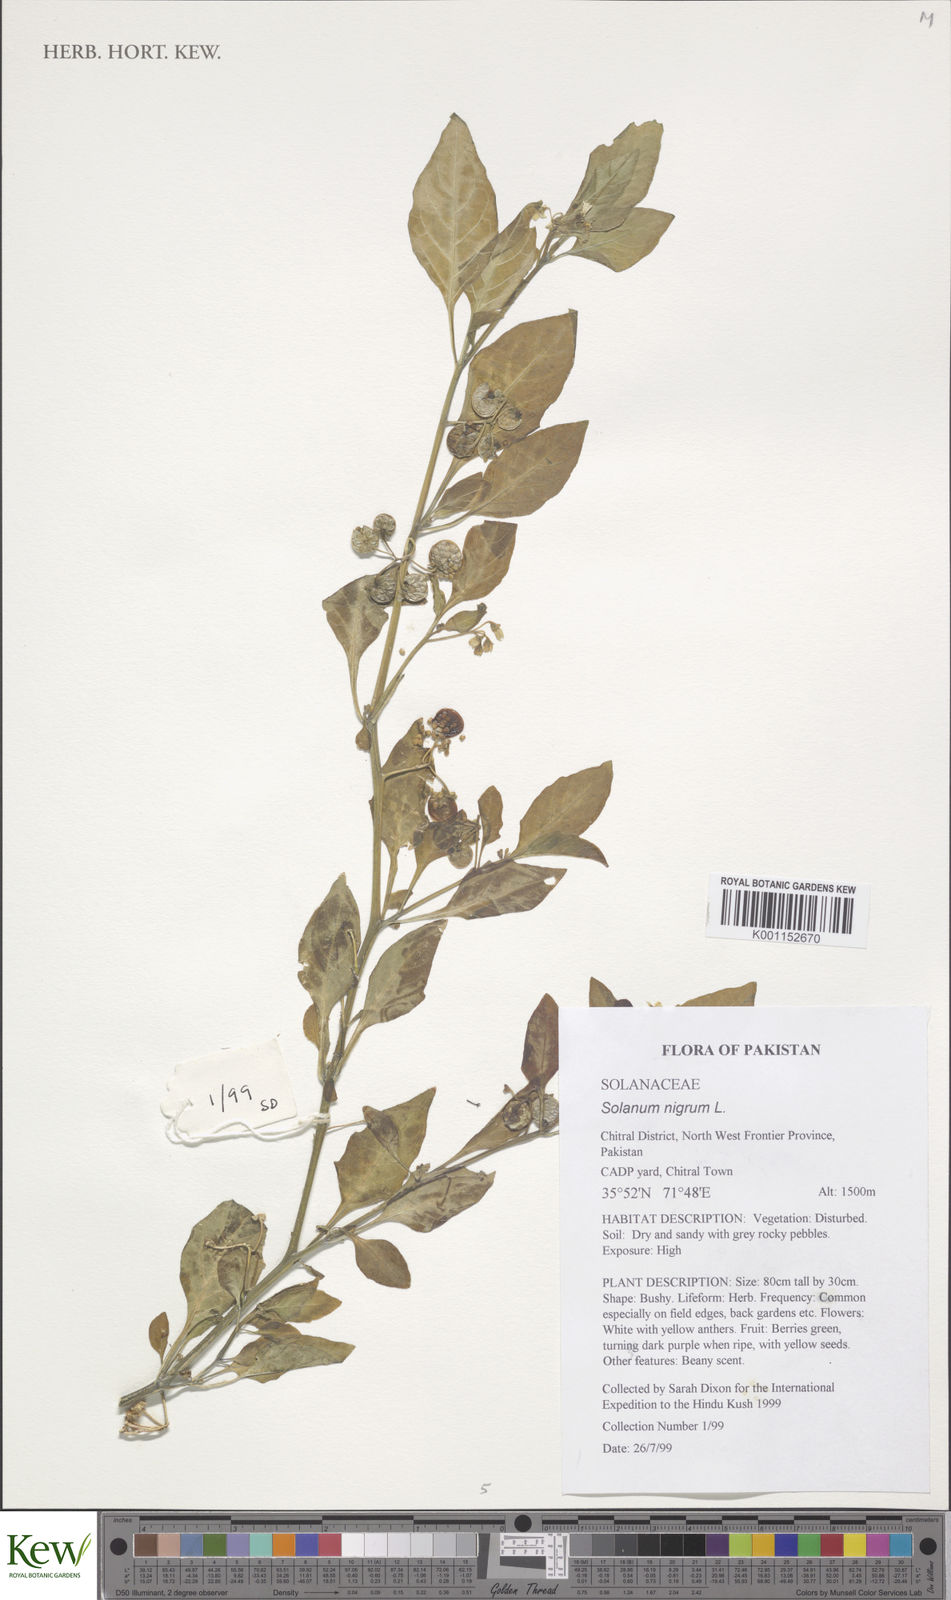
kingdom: Plantae
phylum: Tracheophyta
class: Magnoliopsida
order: Solanales
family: Solanaceae
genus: Solanum
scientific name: Solanum nigrum
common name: Black nightshade
